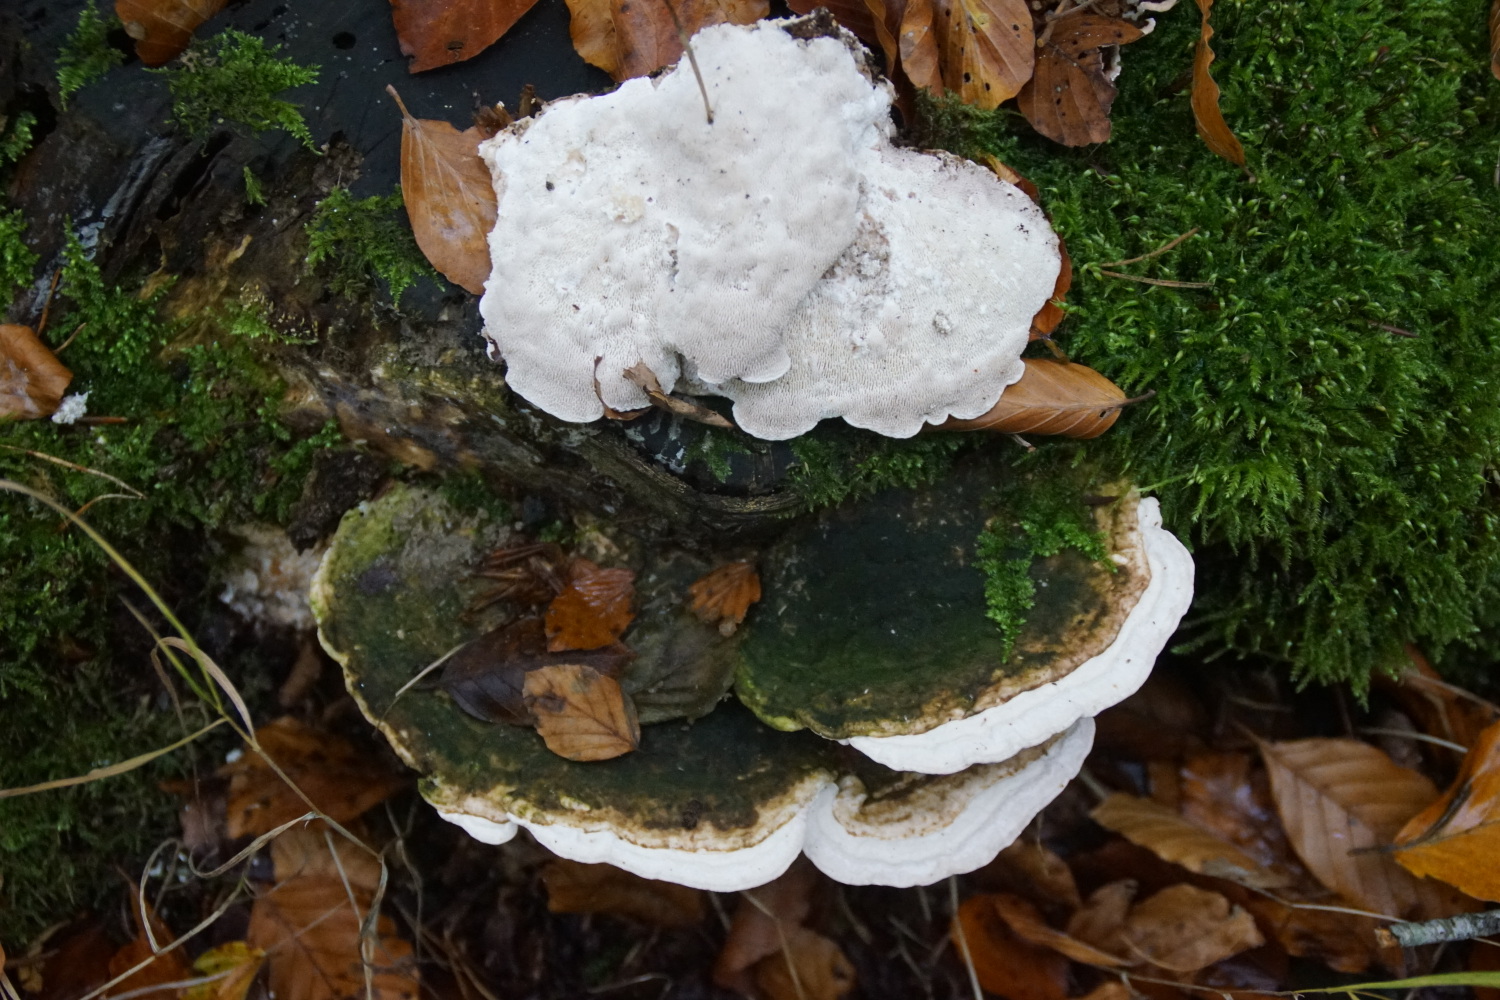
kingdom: Fungi
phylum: Basidiomycota
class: Agaricomycetes
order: Polyporales
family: Polyporaceae
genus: Trametes
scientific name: Trametes gibbosa
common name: puklet læderporesvamp
